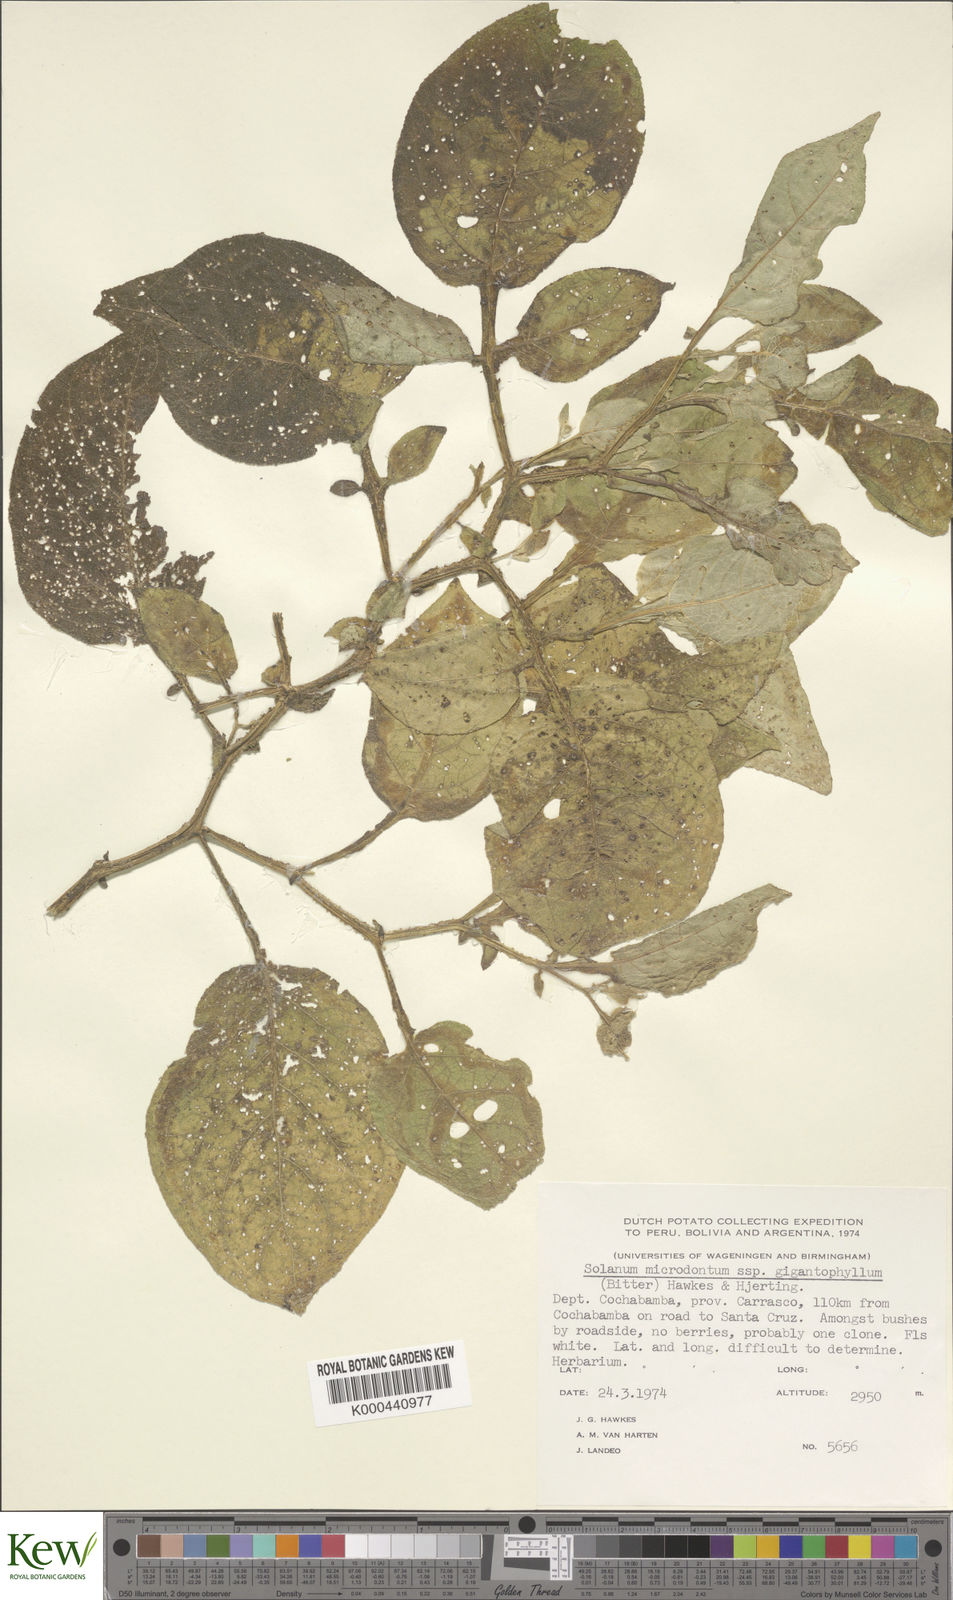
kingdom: Plantae
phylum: Tracheophyta
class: Magnoliopsida
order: Solanales
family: Solanaceae
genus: Solanum
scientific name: Solanum microdontum
